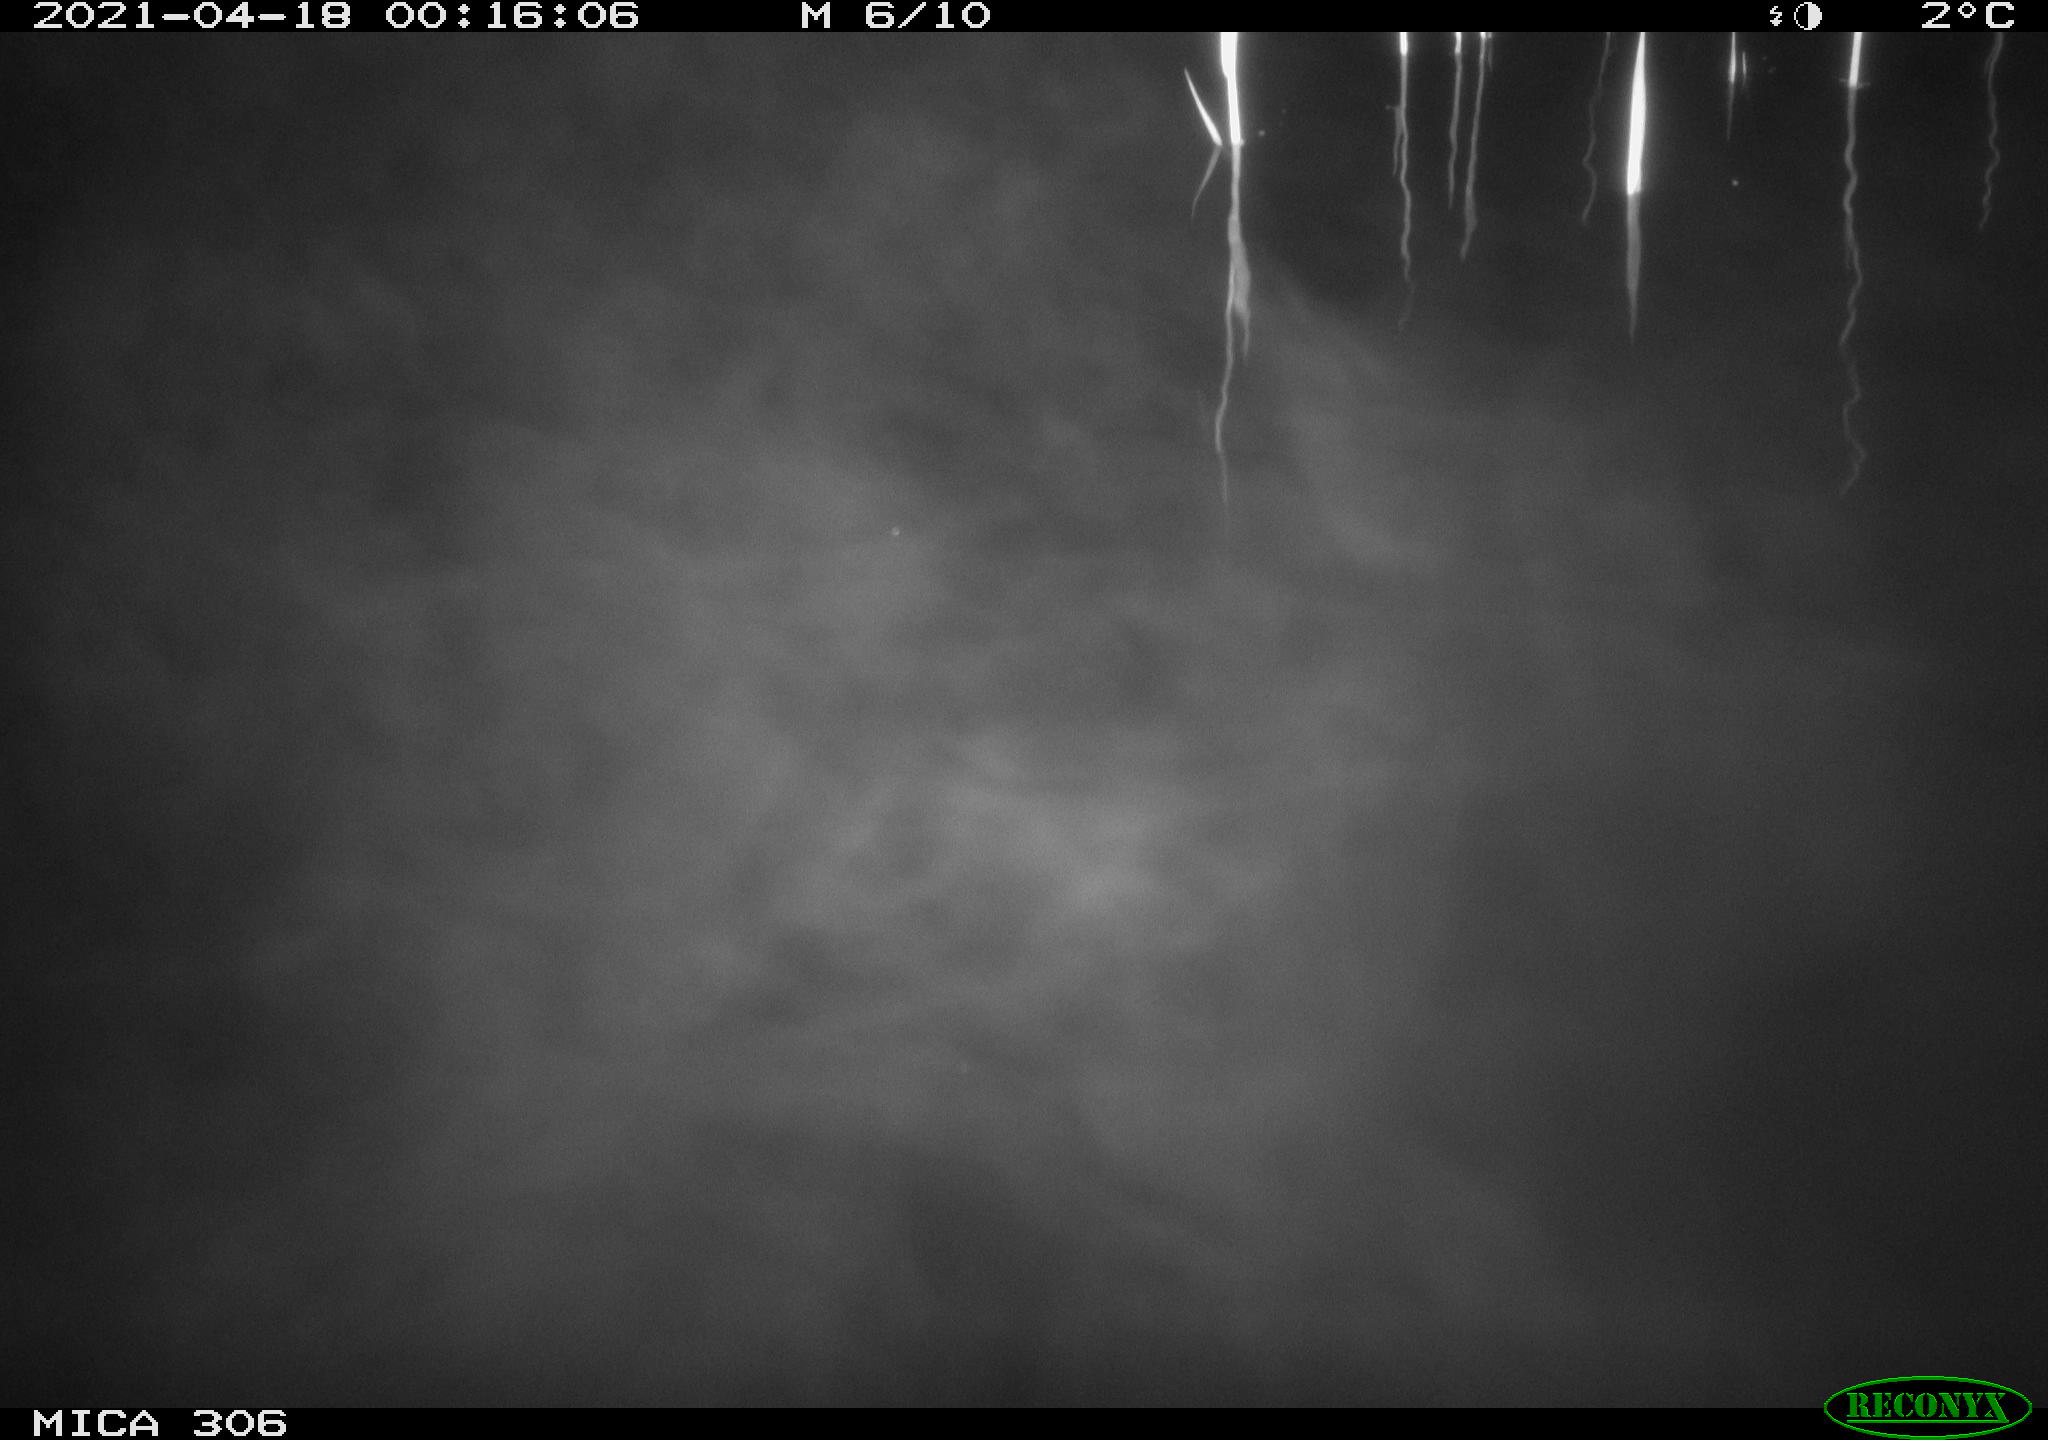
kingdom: Animalia
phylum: Chordata
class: Mammalia
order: Rodentia
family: Cricetidae
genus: Ondatra
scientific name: Ondatra zibethicus
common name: Muskrat
